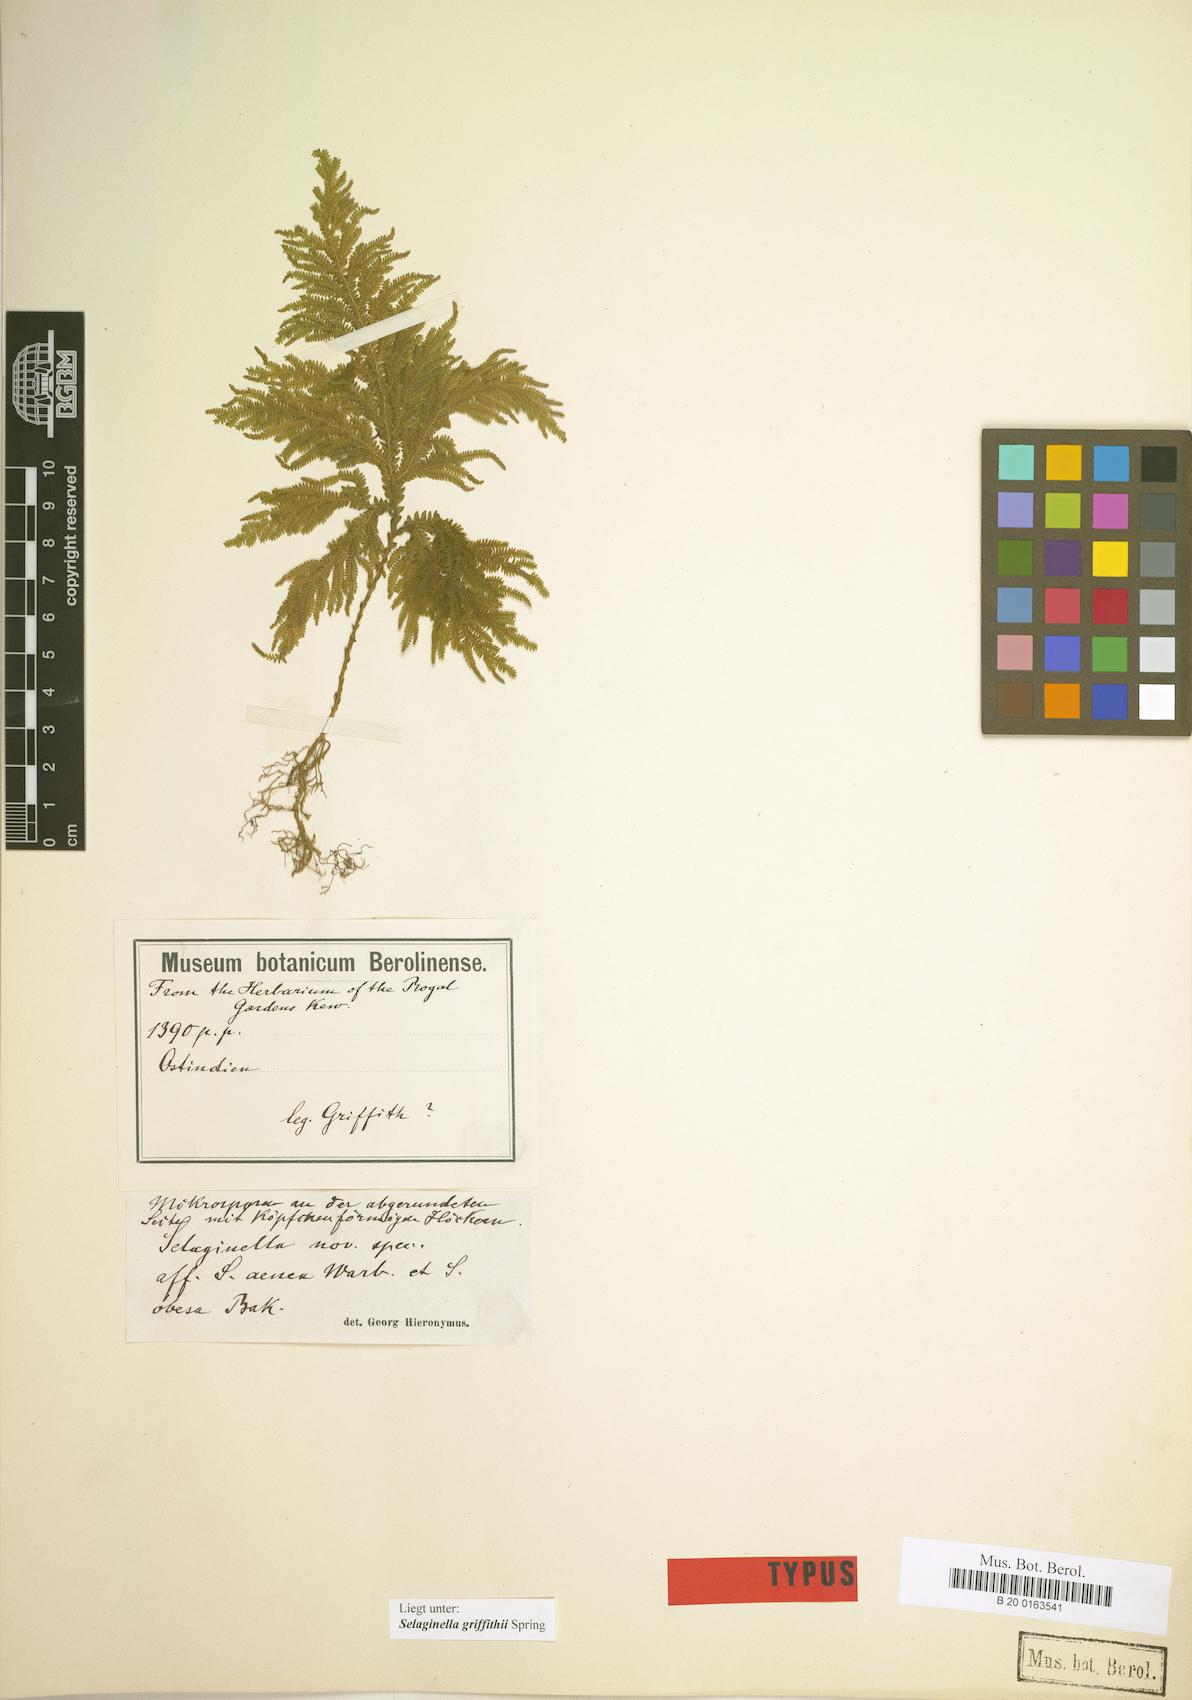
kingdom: Plantae
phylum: Tracheophyta
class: Lycopodiopsida
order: Selaginellales
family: Selaginellaceae
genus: Selaginella
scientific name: Selaginella griffithii
